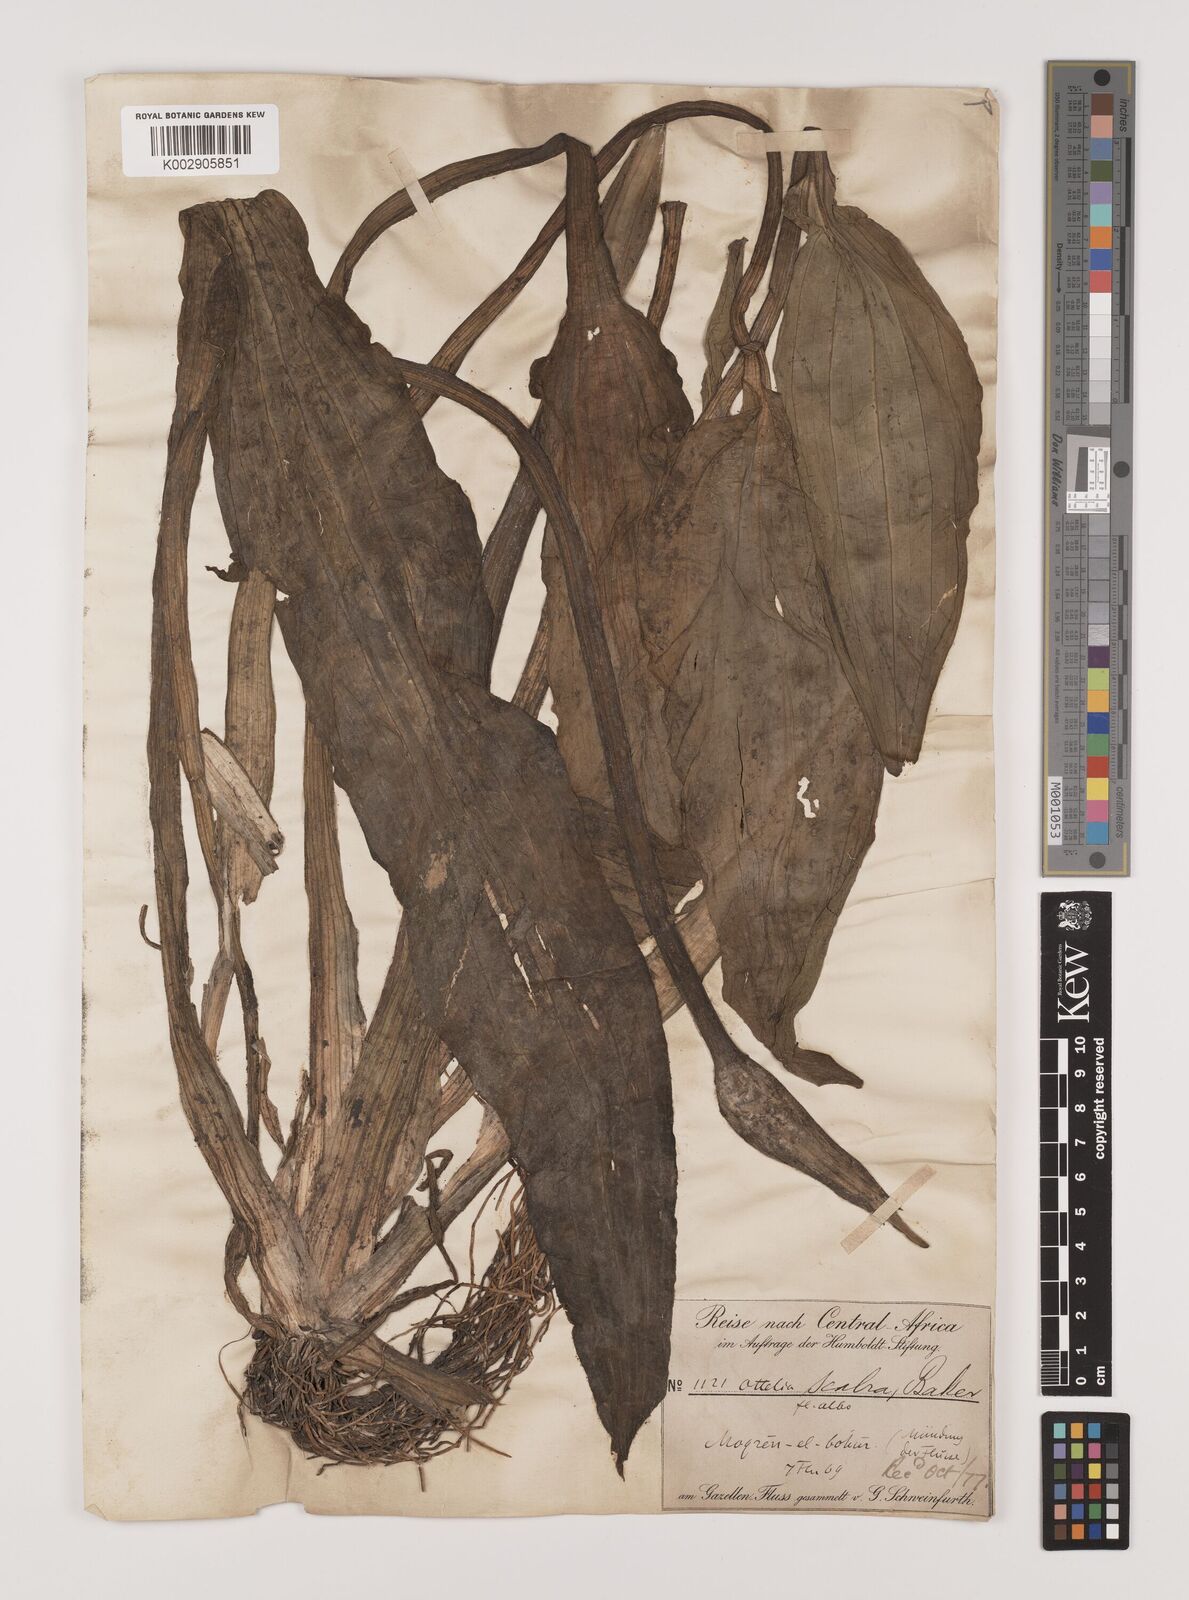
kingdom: Plantae
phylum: Tracheophyta
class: Liliopsida
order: Alismatales
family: Hydrocharitaceae
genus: Ottelia
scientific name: Ottelia scabra
